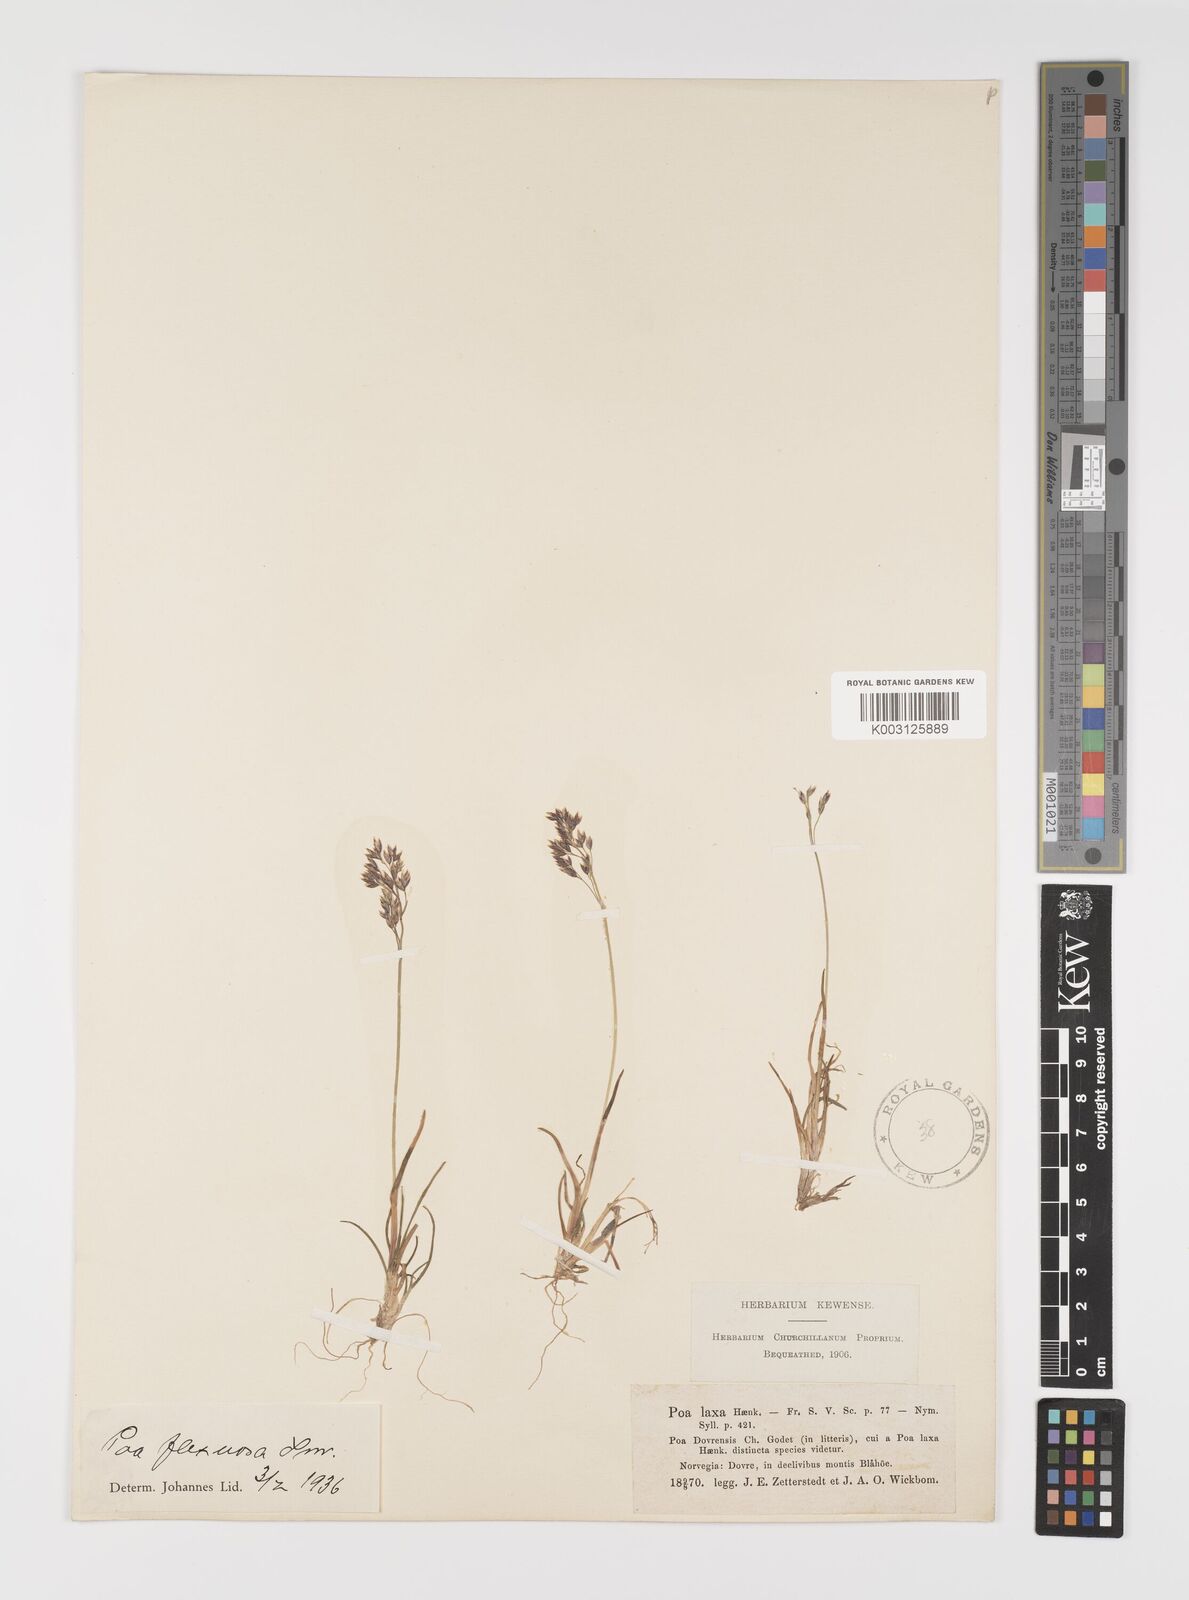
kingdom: Plantae
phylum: Tracheophyta
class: Liliopsida
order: Poales
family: Poaceae
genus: Eragrostis
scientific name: Eragrostis cilianensis
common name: Stinkgrass
